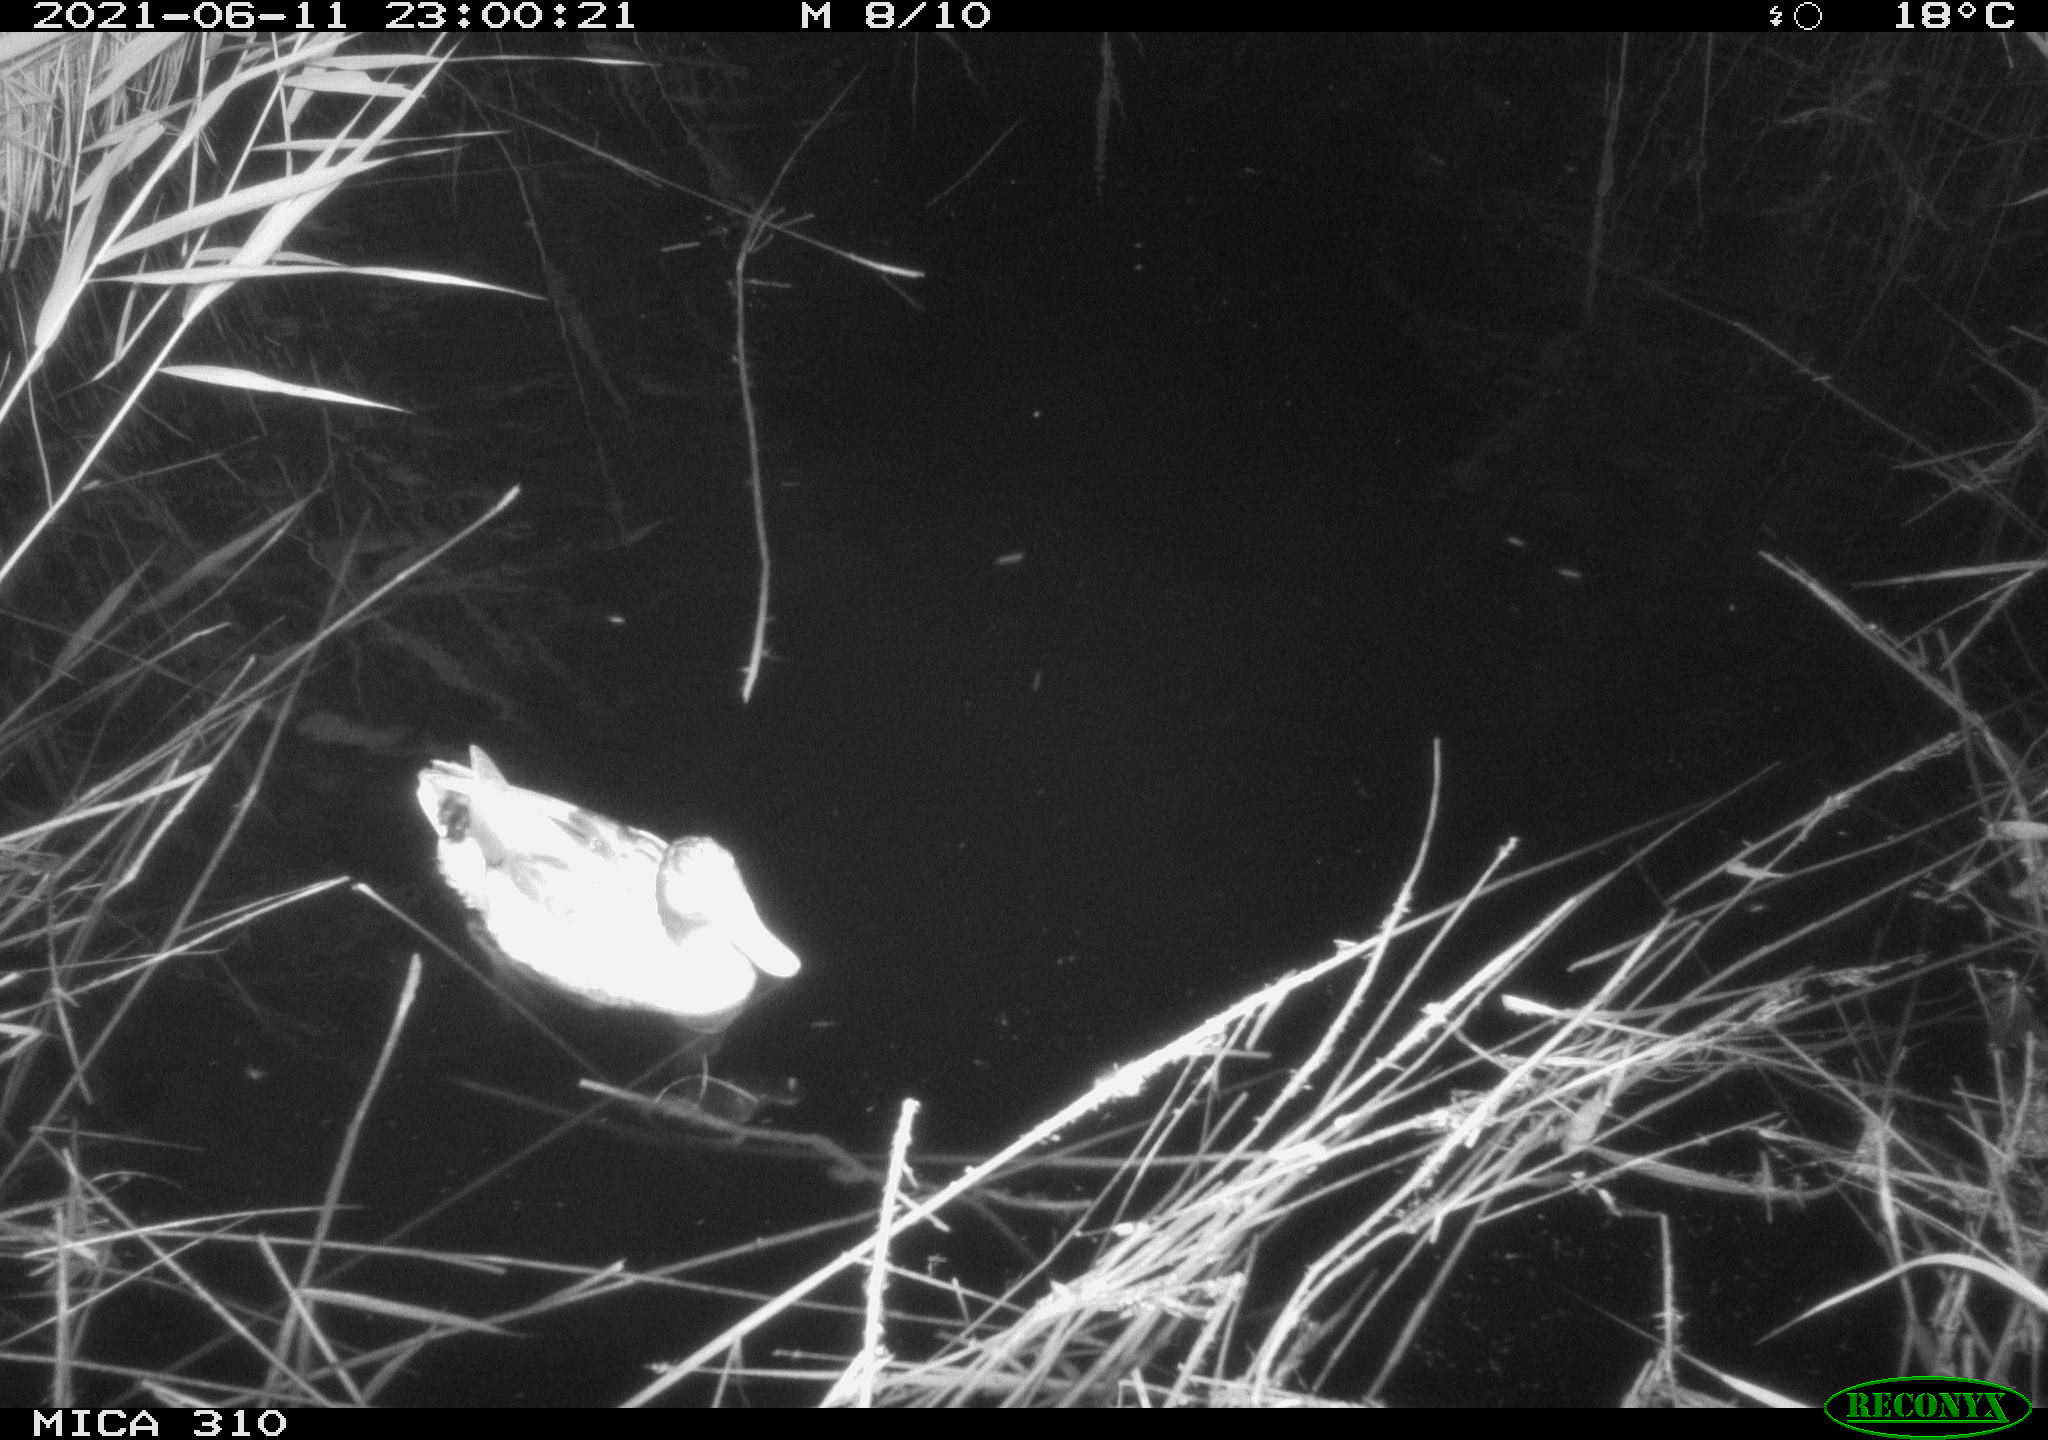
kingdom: Animalia
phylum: Chordata
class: Aves
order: Anseriformes
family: Anatidae
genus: Anas
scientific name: Anas
